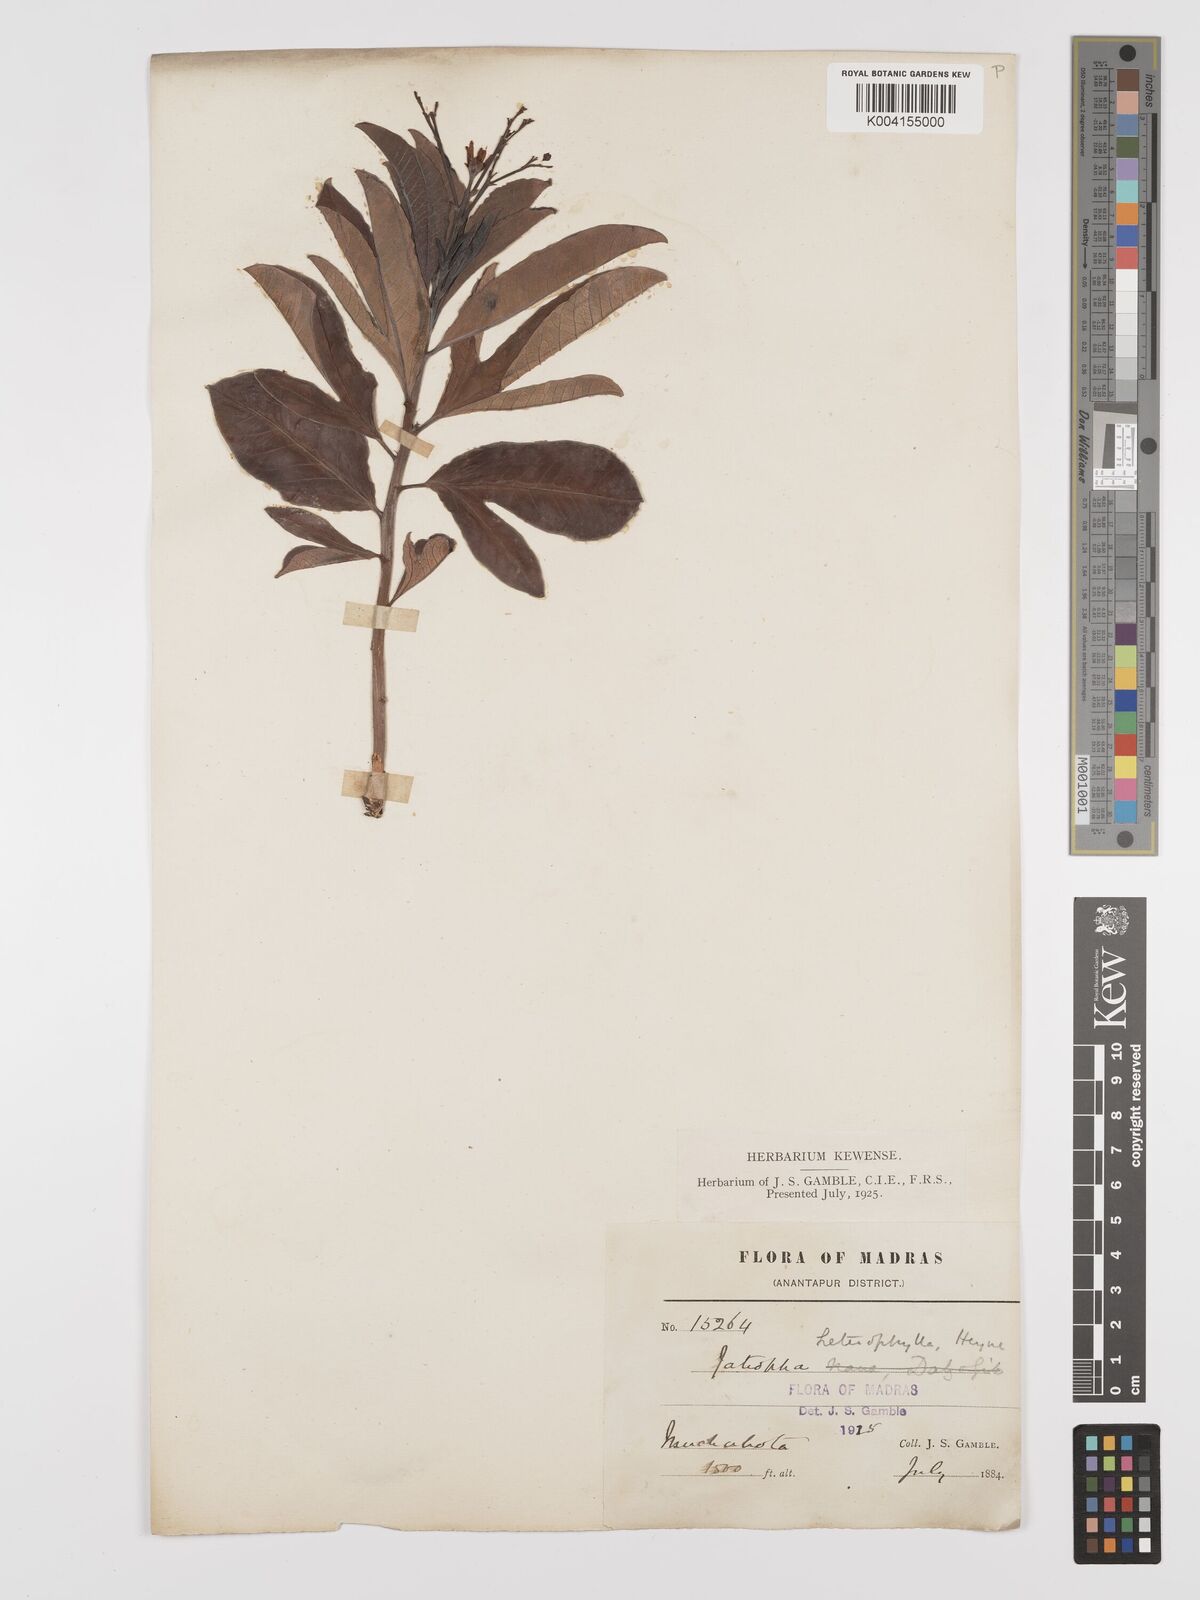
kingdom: Plantae
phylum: Tracheophyta
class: Magnoliopsida
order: Malpighiales
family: Euphorbiaceae
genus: Jatropha
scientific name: Jatropha
